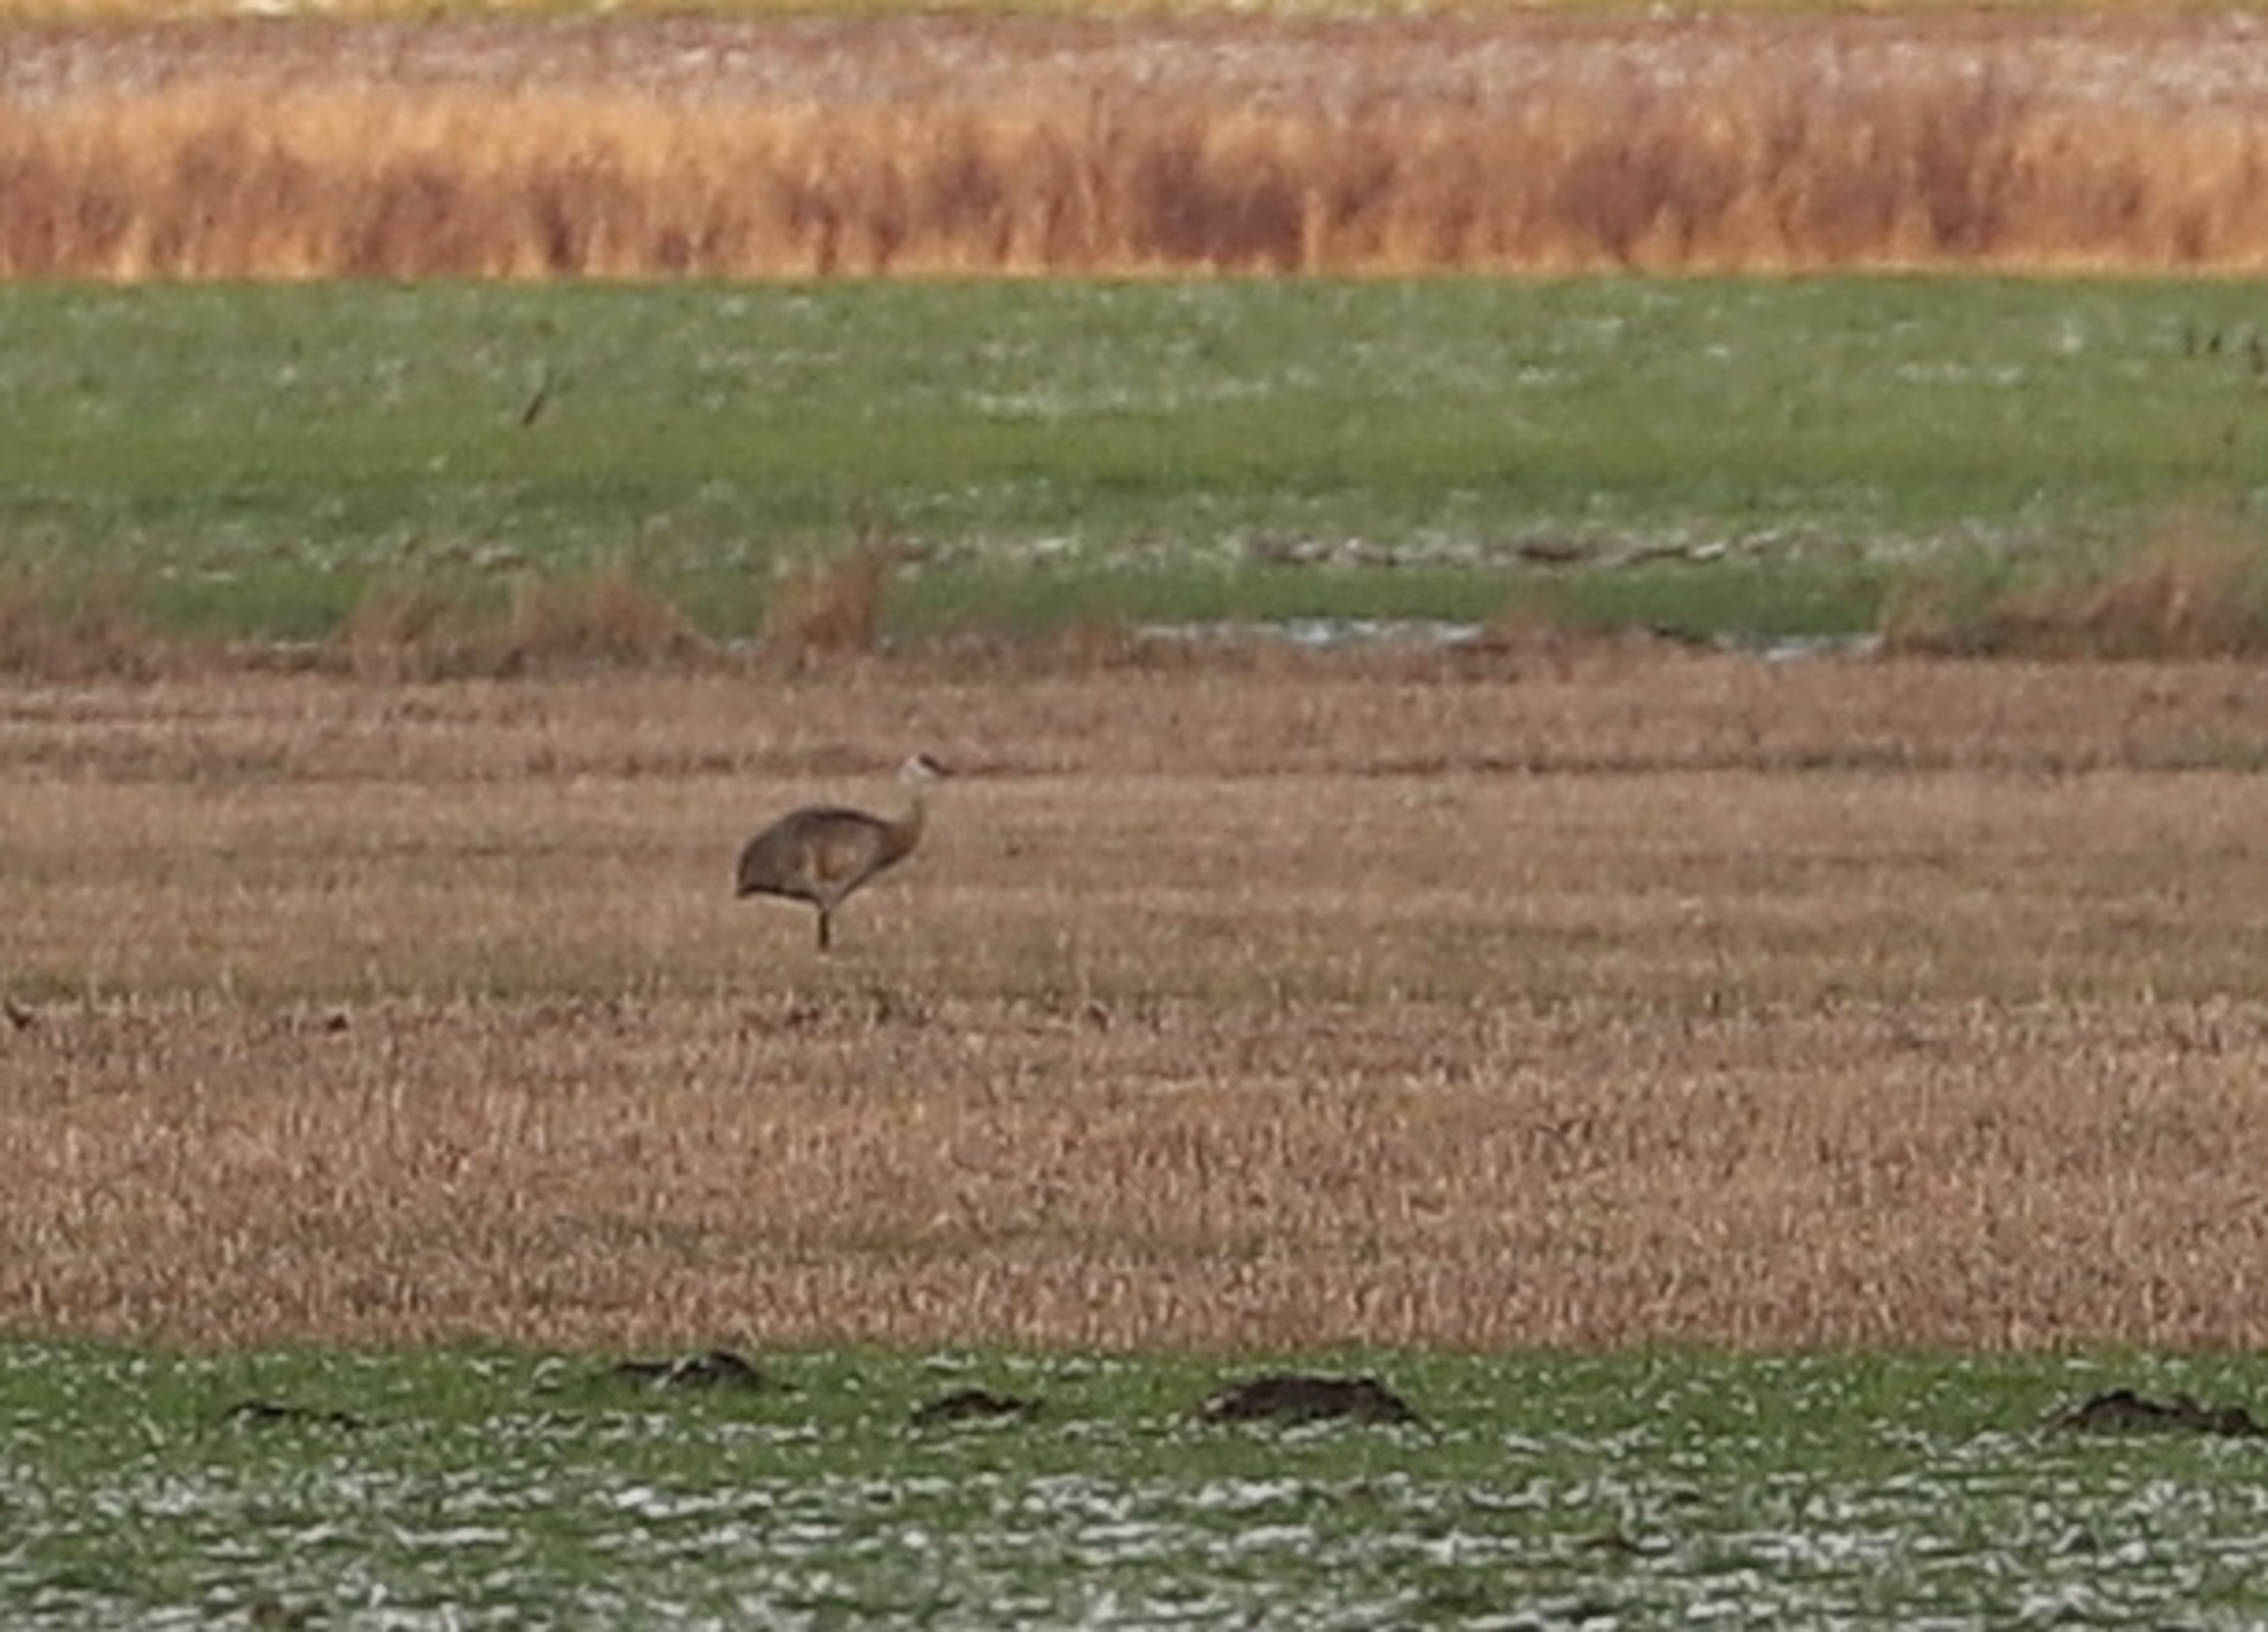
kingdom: Animalia
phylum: Chordata
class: Aves
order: Gruiformes
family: Gruidae
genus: Grus
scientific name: Grus canadensis
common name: Prærietrane
